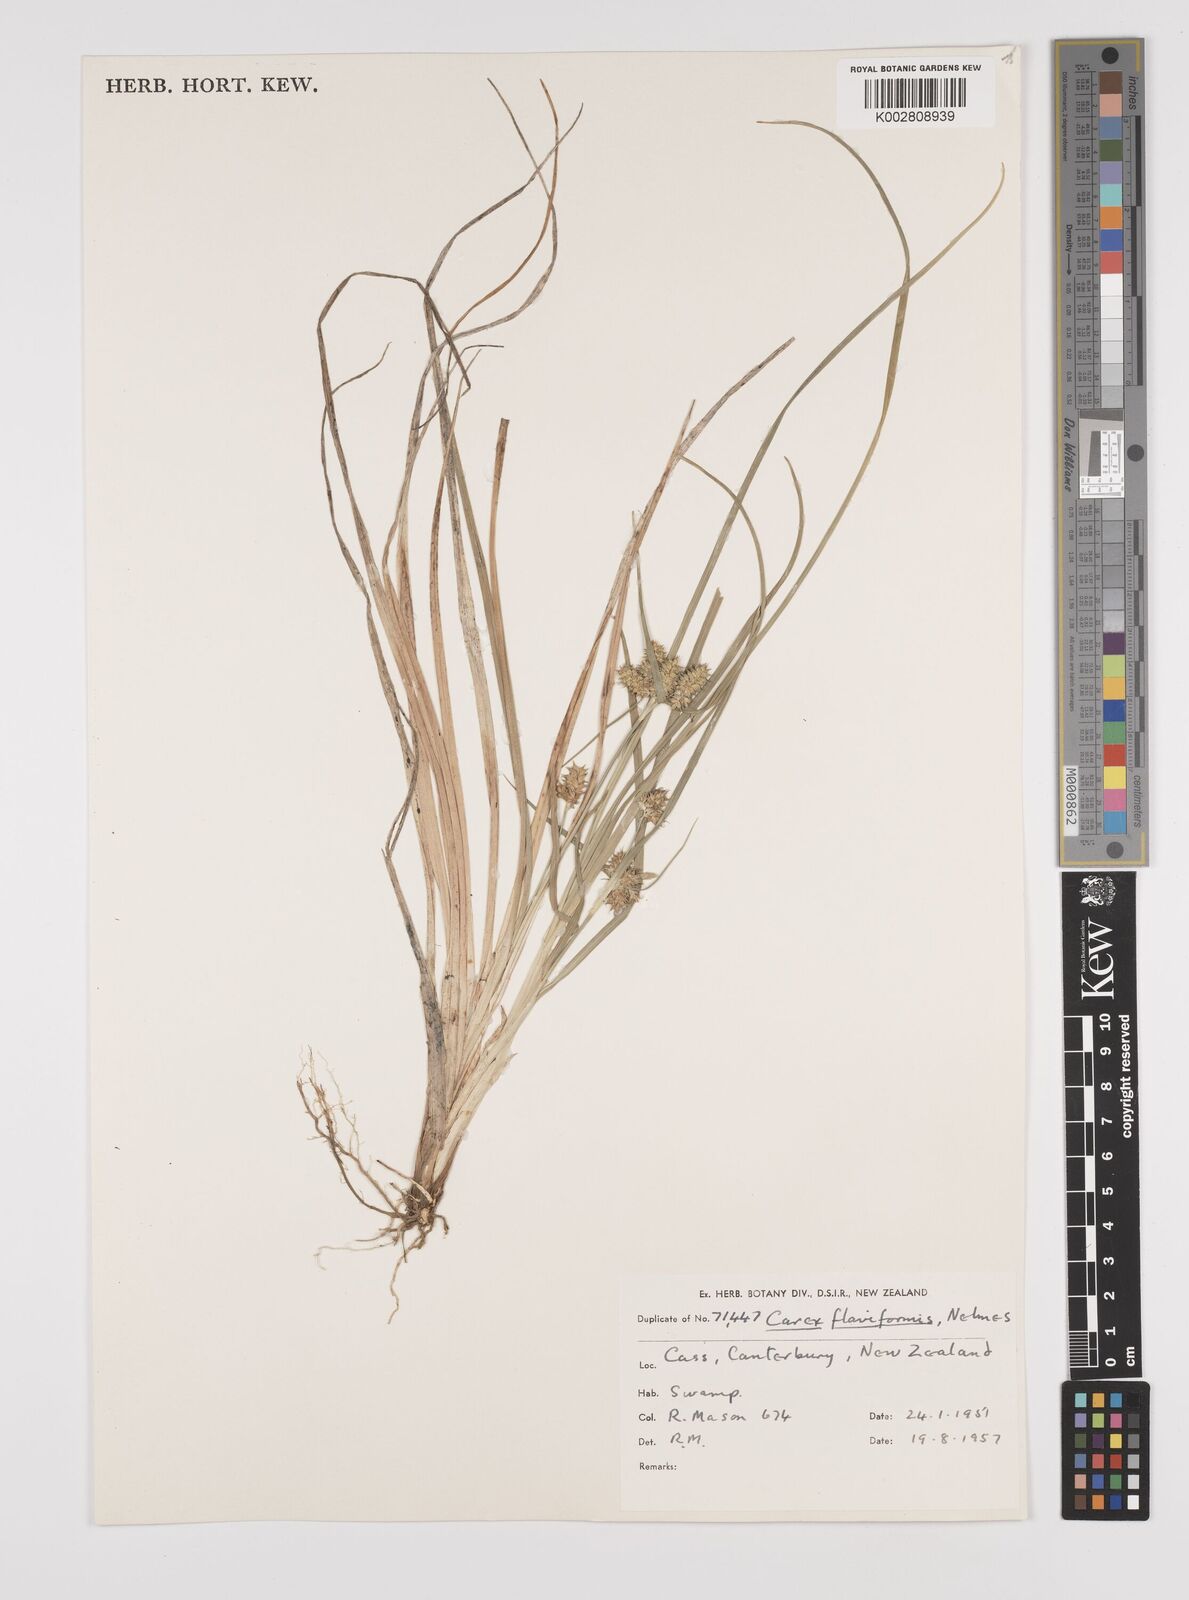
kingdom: Plantae
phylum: Tracheophyta
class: Liliopsida
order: Poales
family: Cyperaceae
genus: Carex
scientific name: Carex flaviformis
